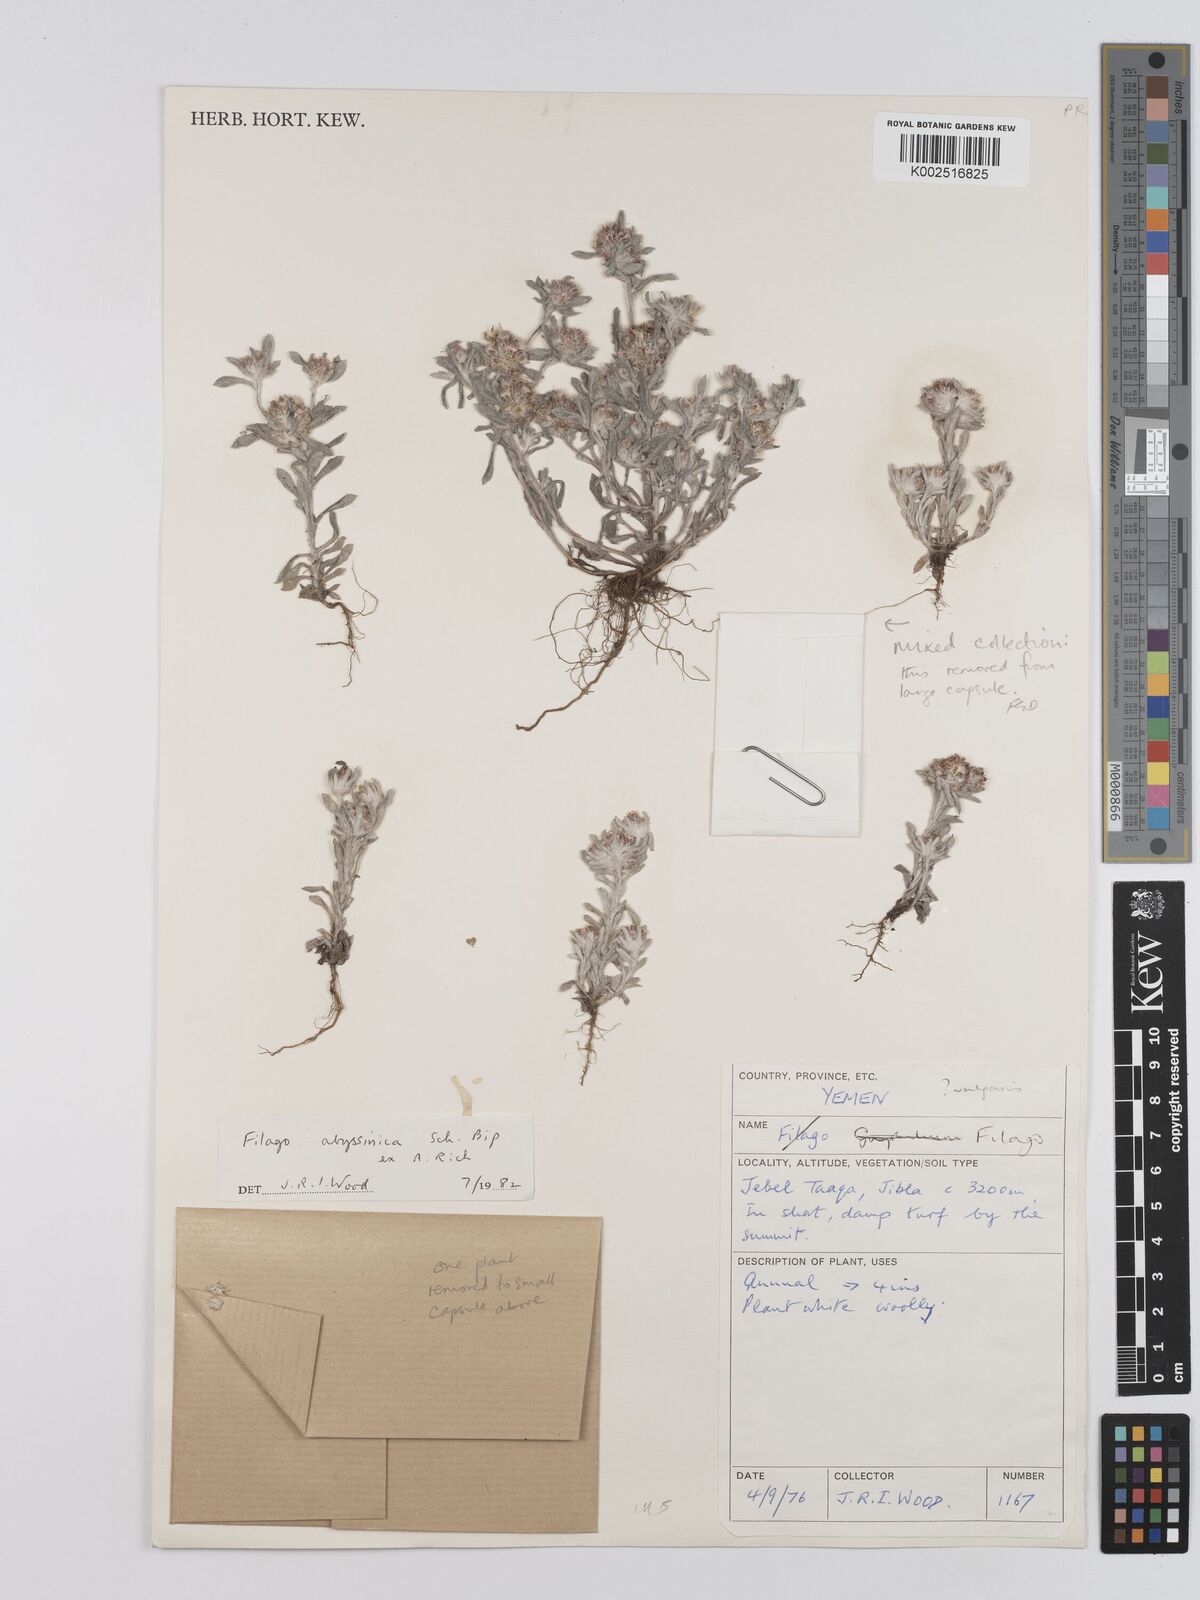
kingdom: Plantae
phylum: Tracheophyta
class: Magnoliopsida
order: Asterales
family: Asteraceae
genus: Filago
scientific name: Filago
